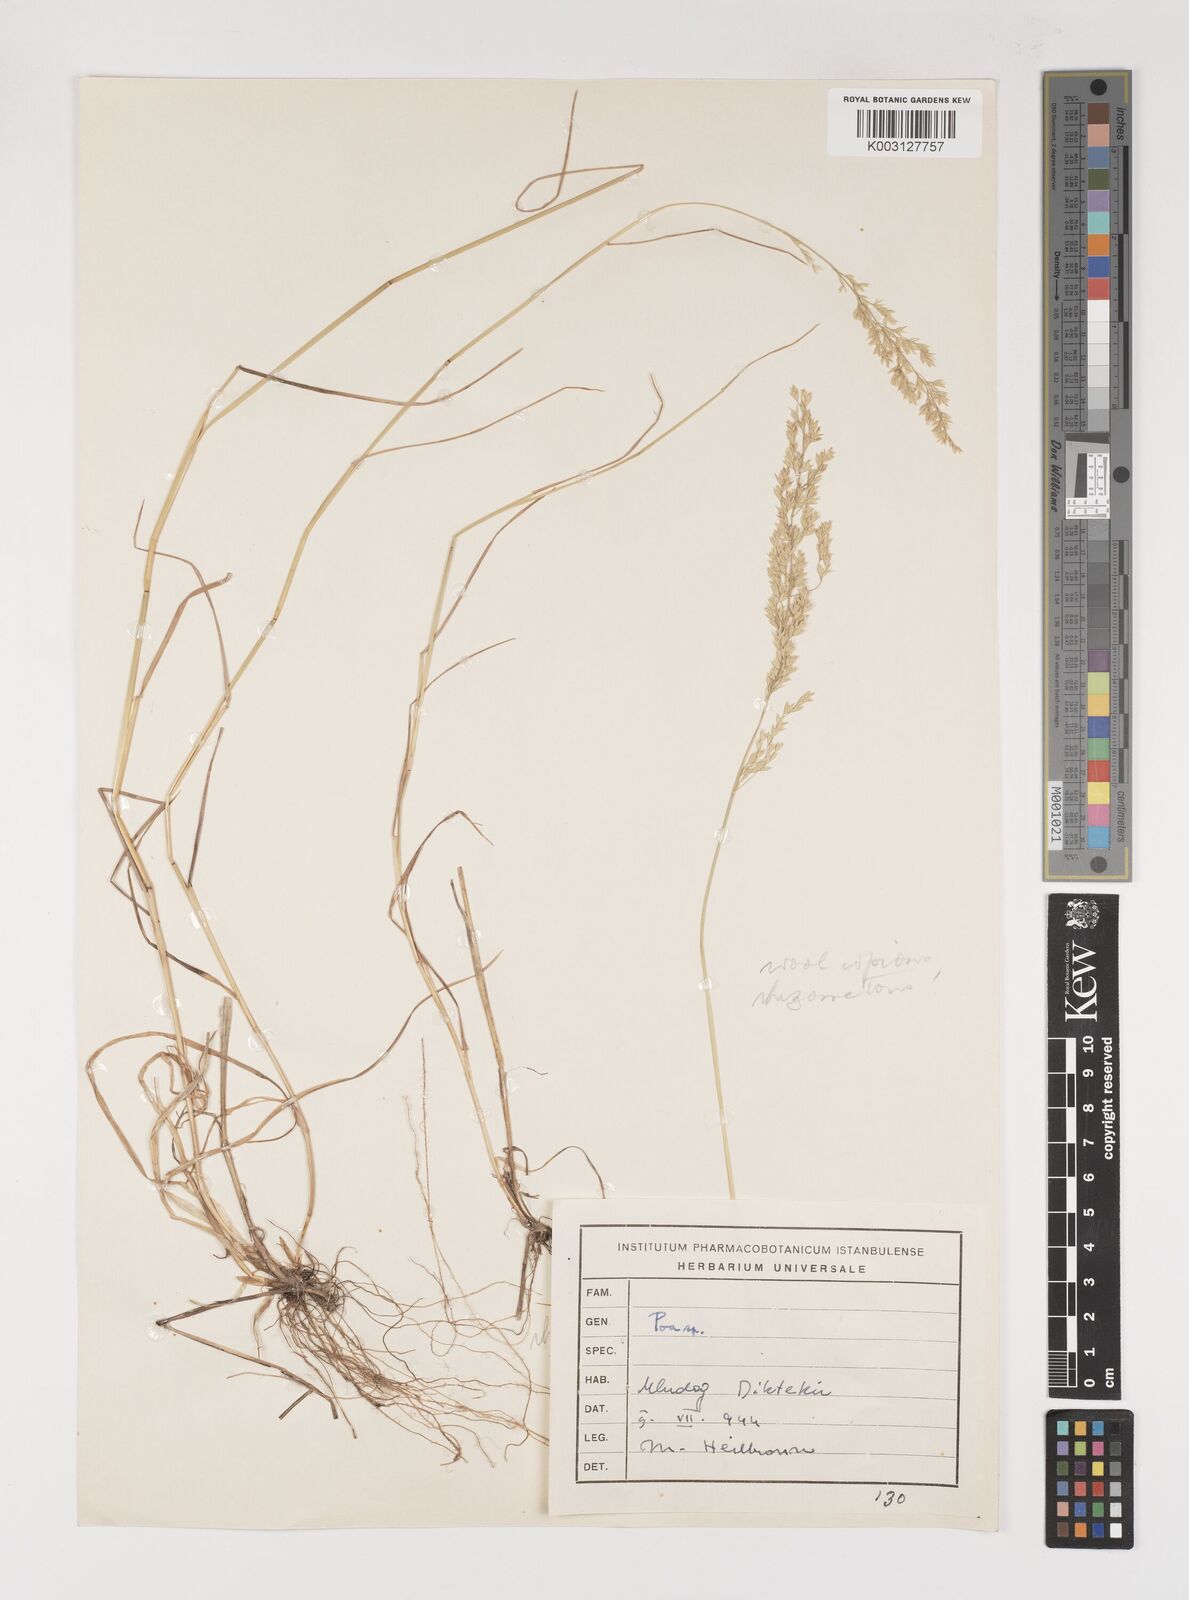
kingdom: Plantae
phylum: Tracheophyta
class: Liliopsida
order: Poales
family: Poaceae
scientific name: Poaceae
